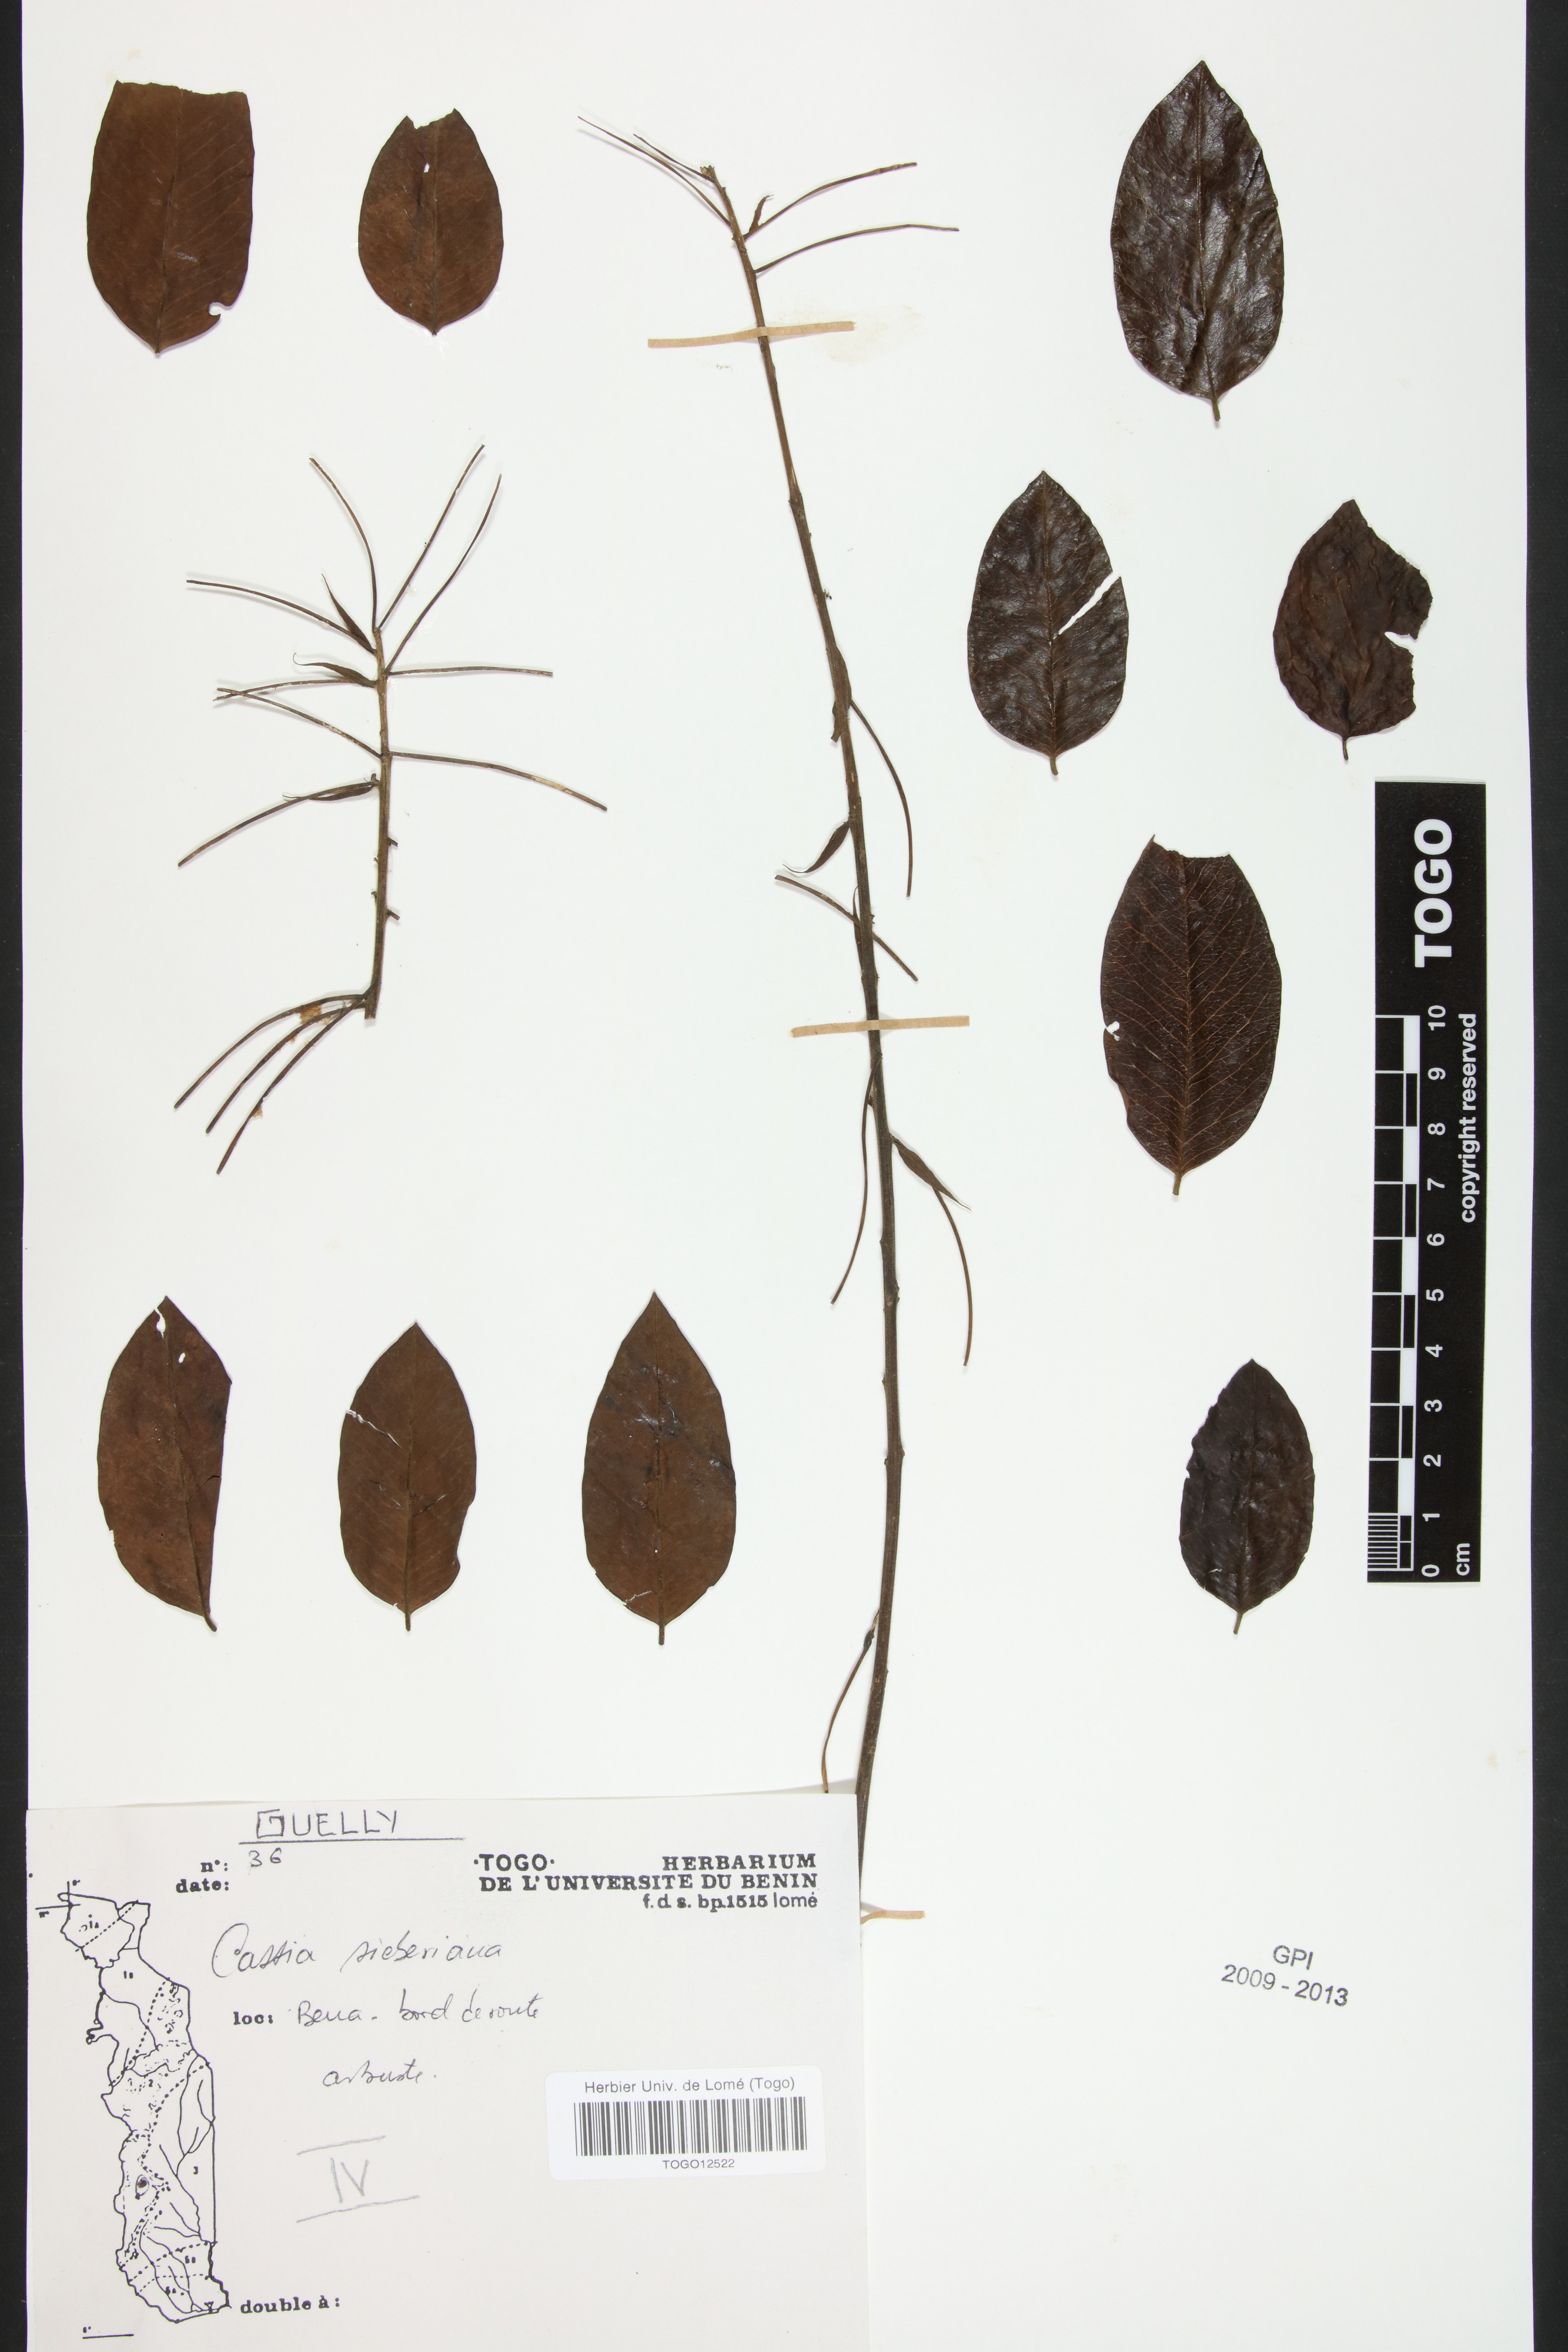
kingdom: Plantae
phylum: Tracheophyta
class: Magnoliopsida
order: Fabales
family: Fabaceae
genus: Cassia
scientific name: Cassia sieberiana
